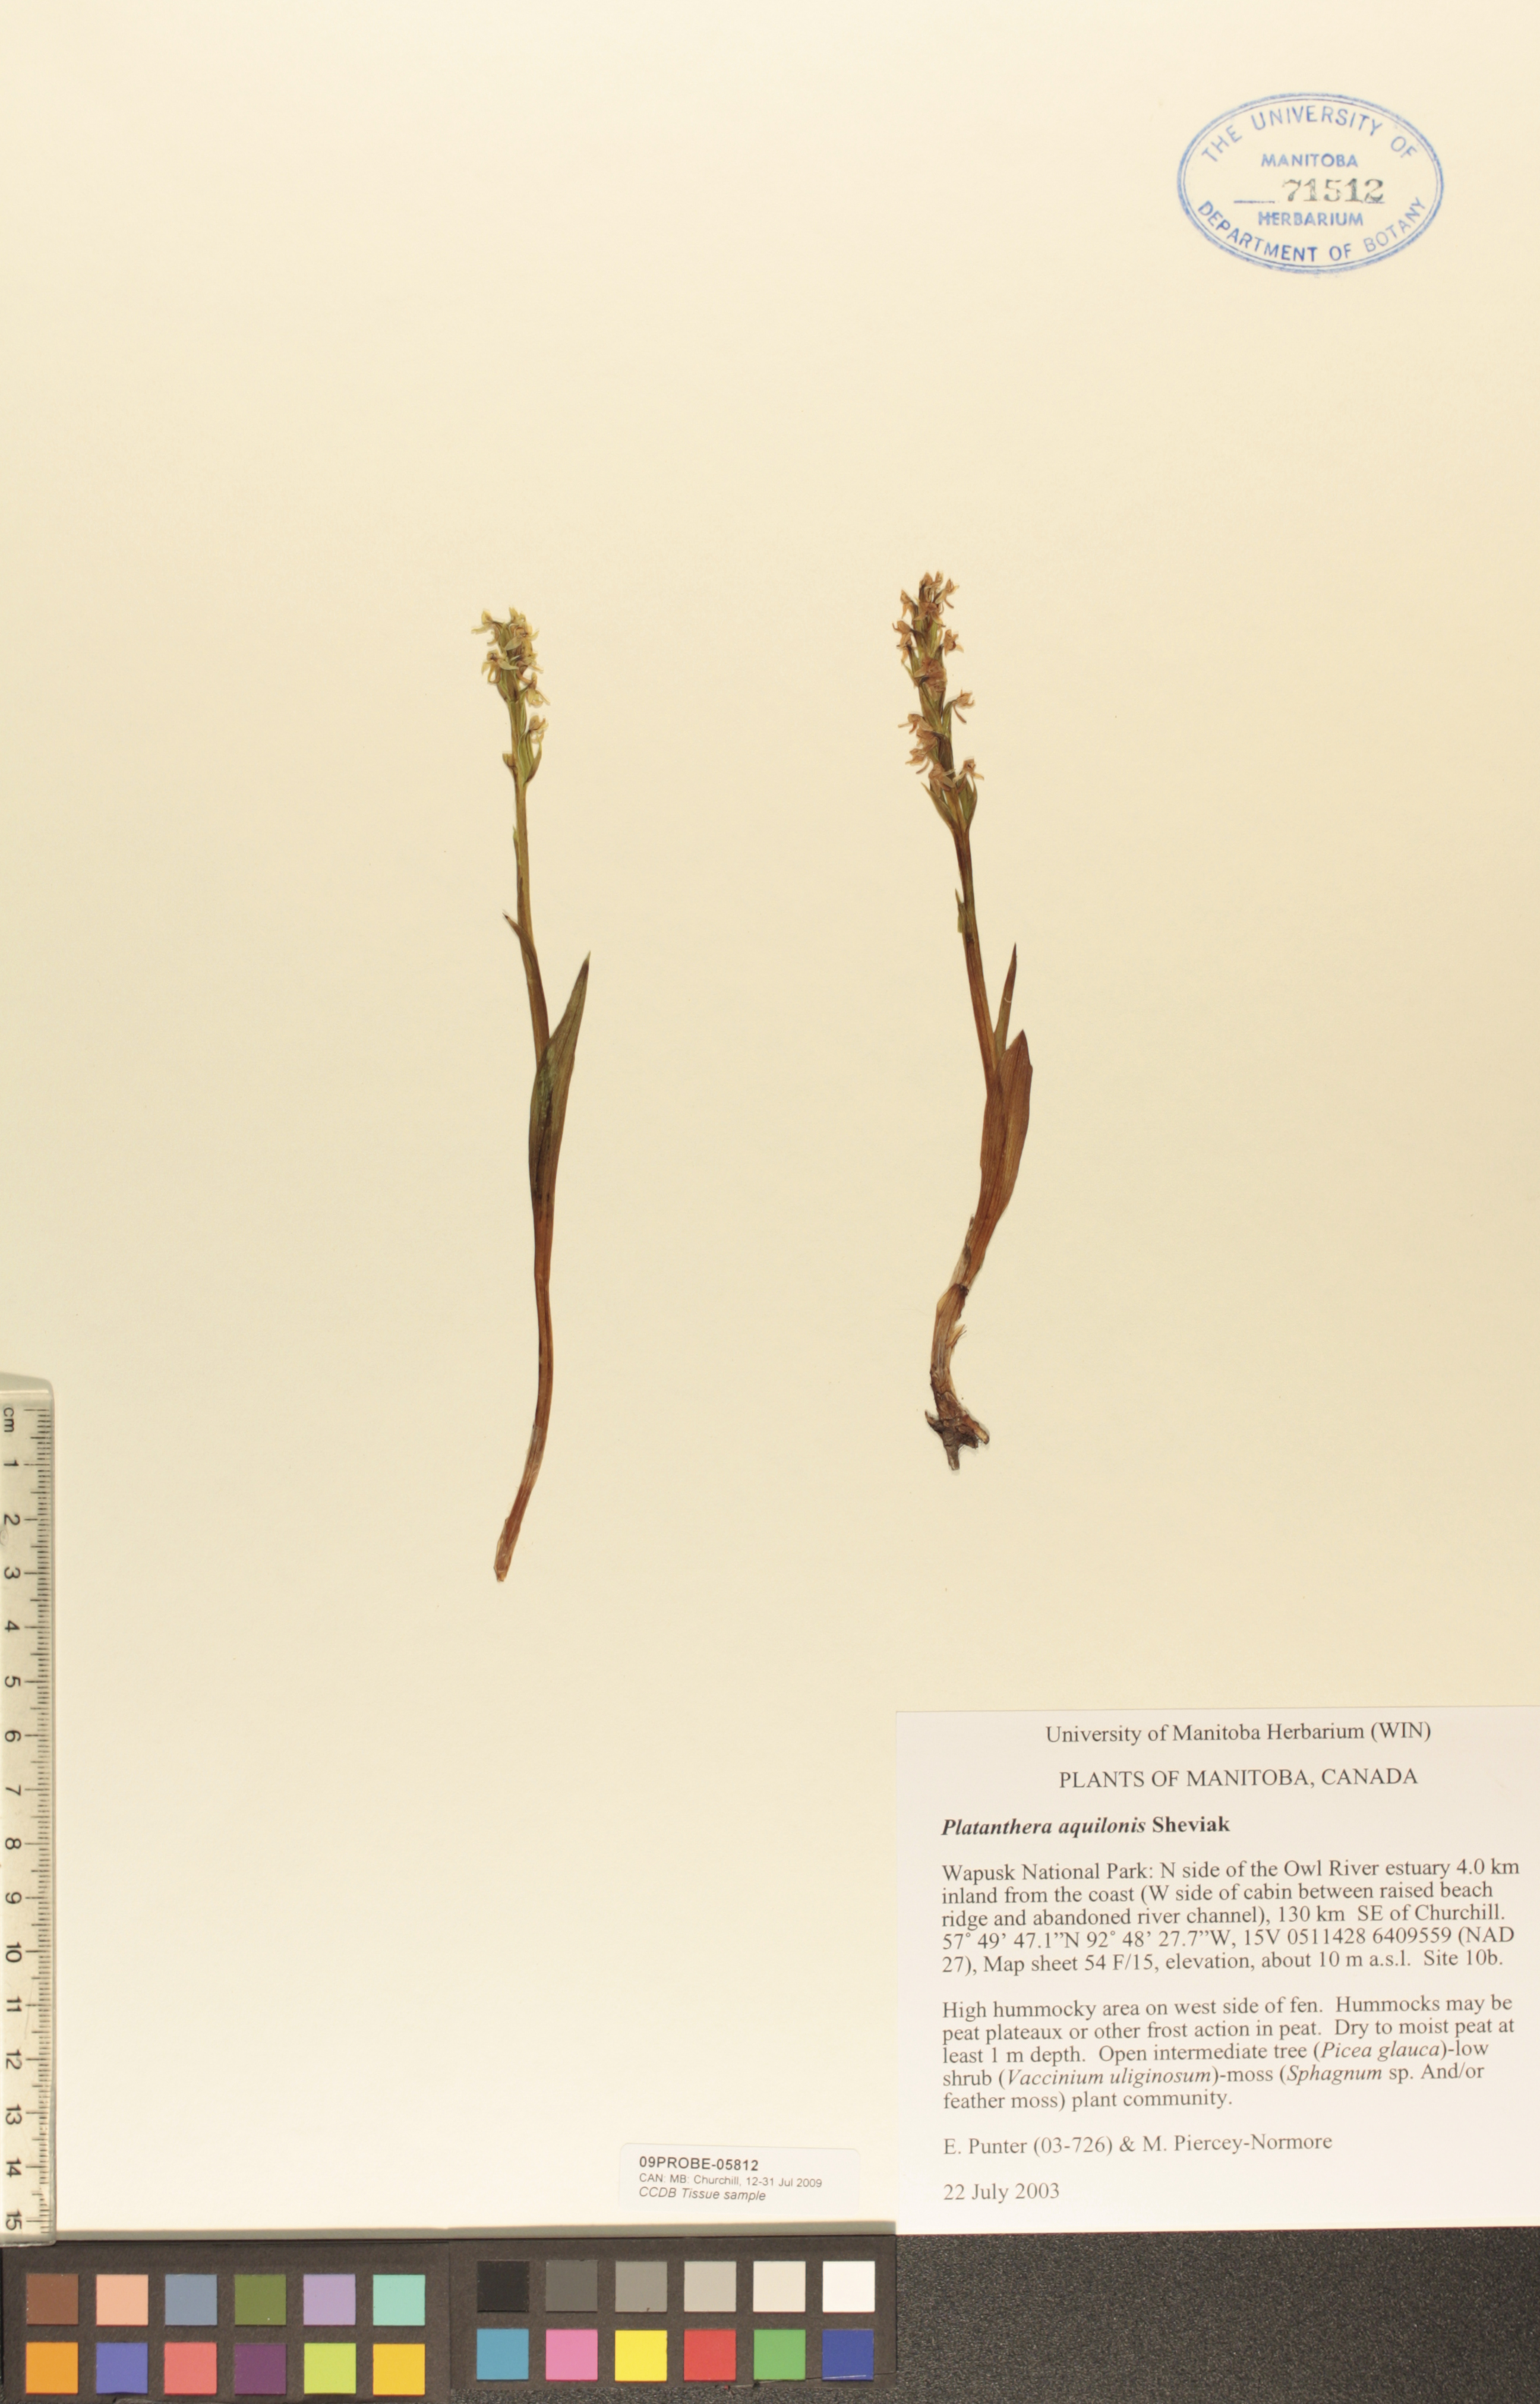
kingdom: Plantae
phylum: Tracheophyta
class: Liliopsida
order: Asparagales
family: Orchidaceae
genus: Platanthera
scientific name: Platanthera aquilonis
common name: Northern green orchid
